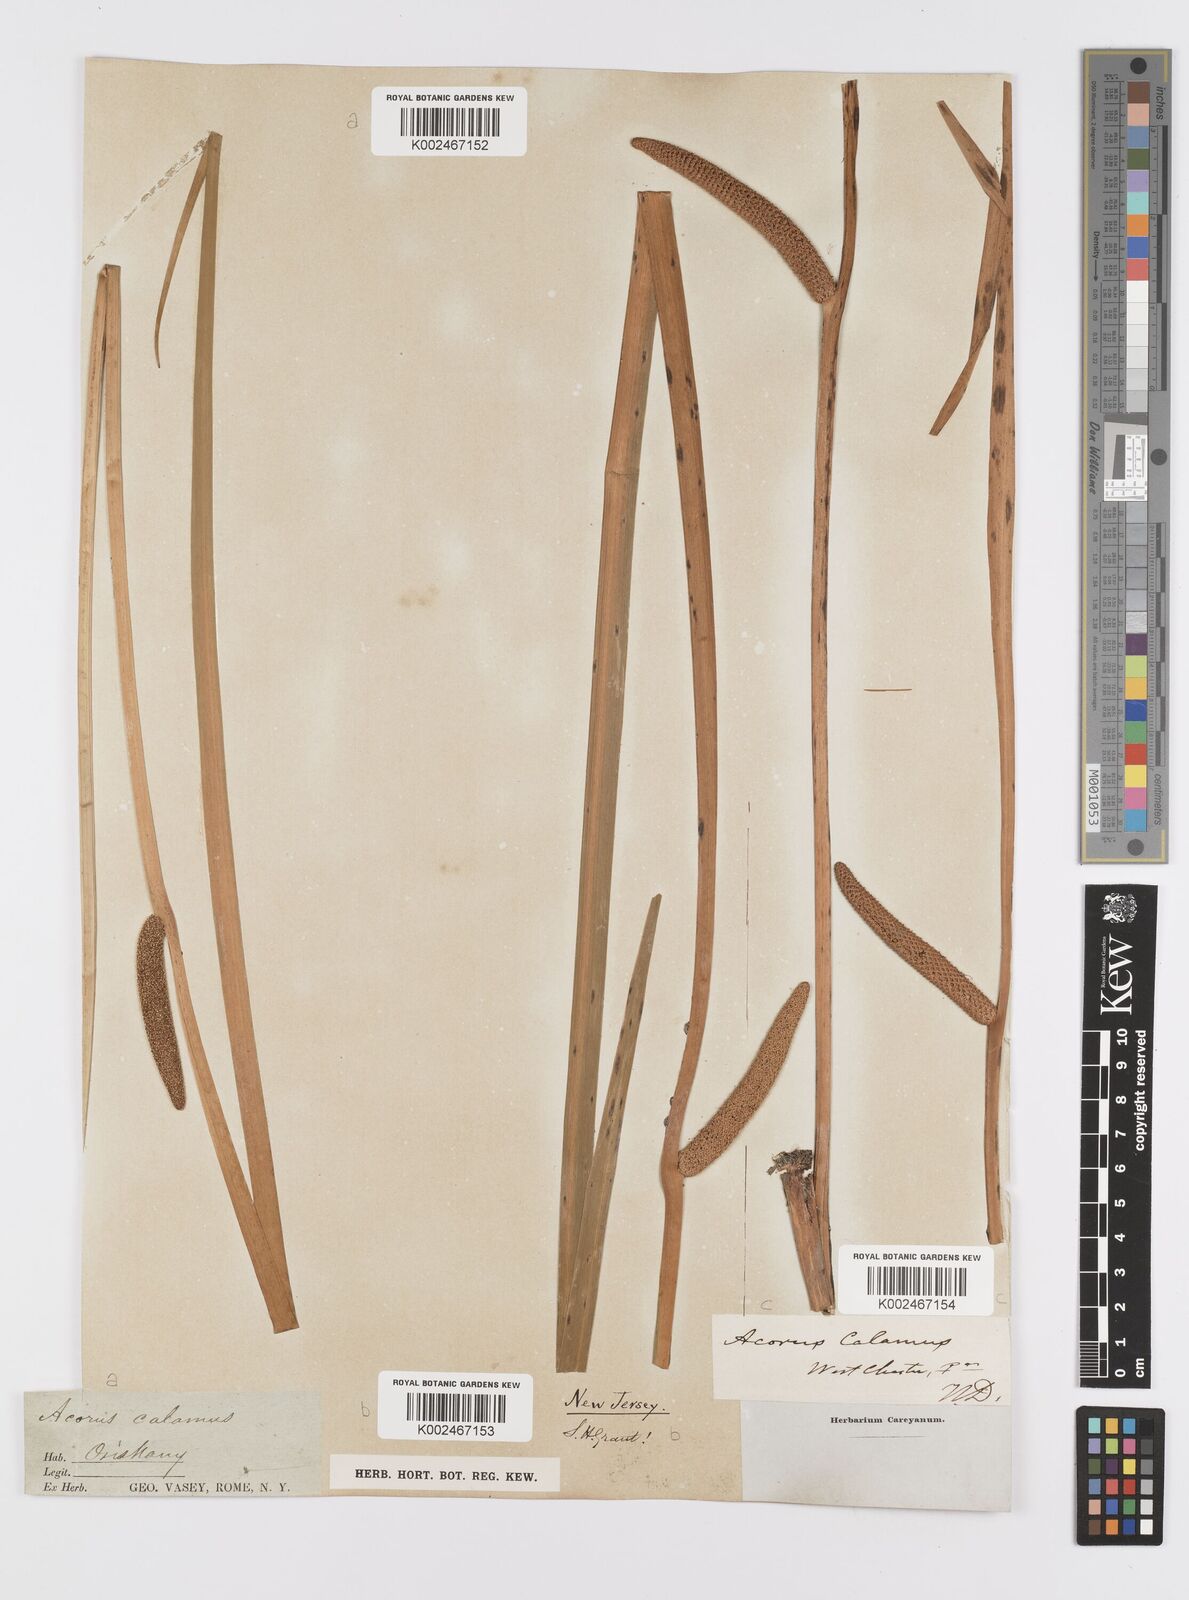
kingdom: Plantae
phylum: Tracheophyta
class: Liliopsida
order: Acorales
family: Acoraceae
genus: Acorus
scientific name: Acorus calamus
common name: Sweet-flag
